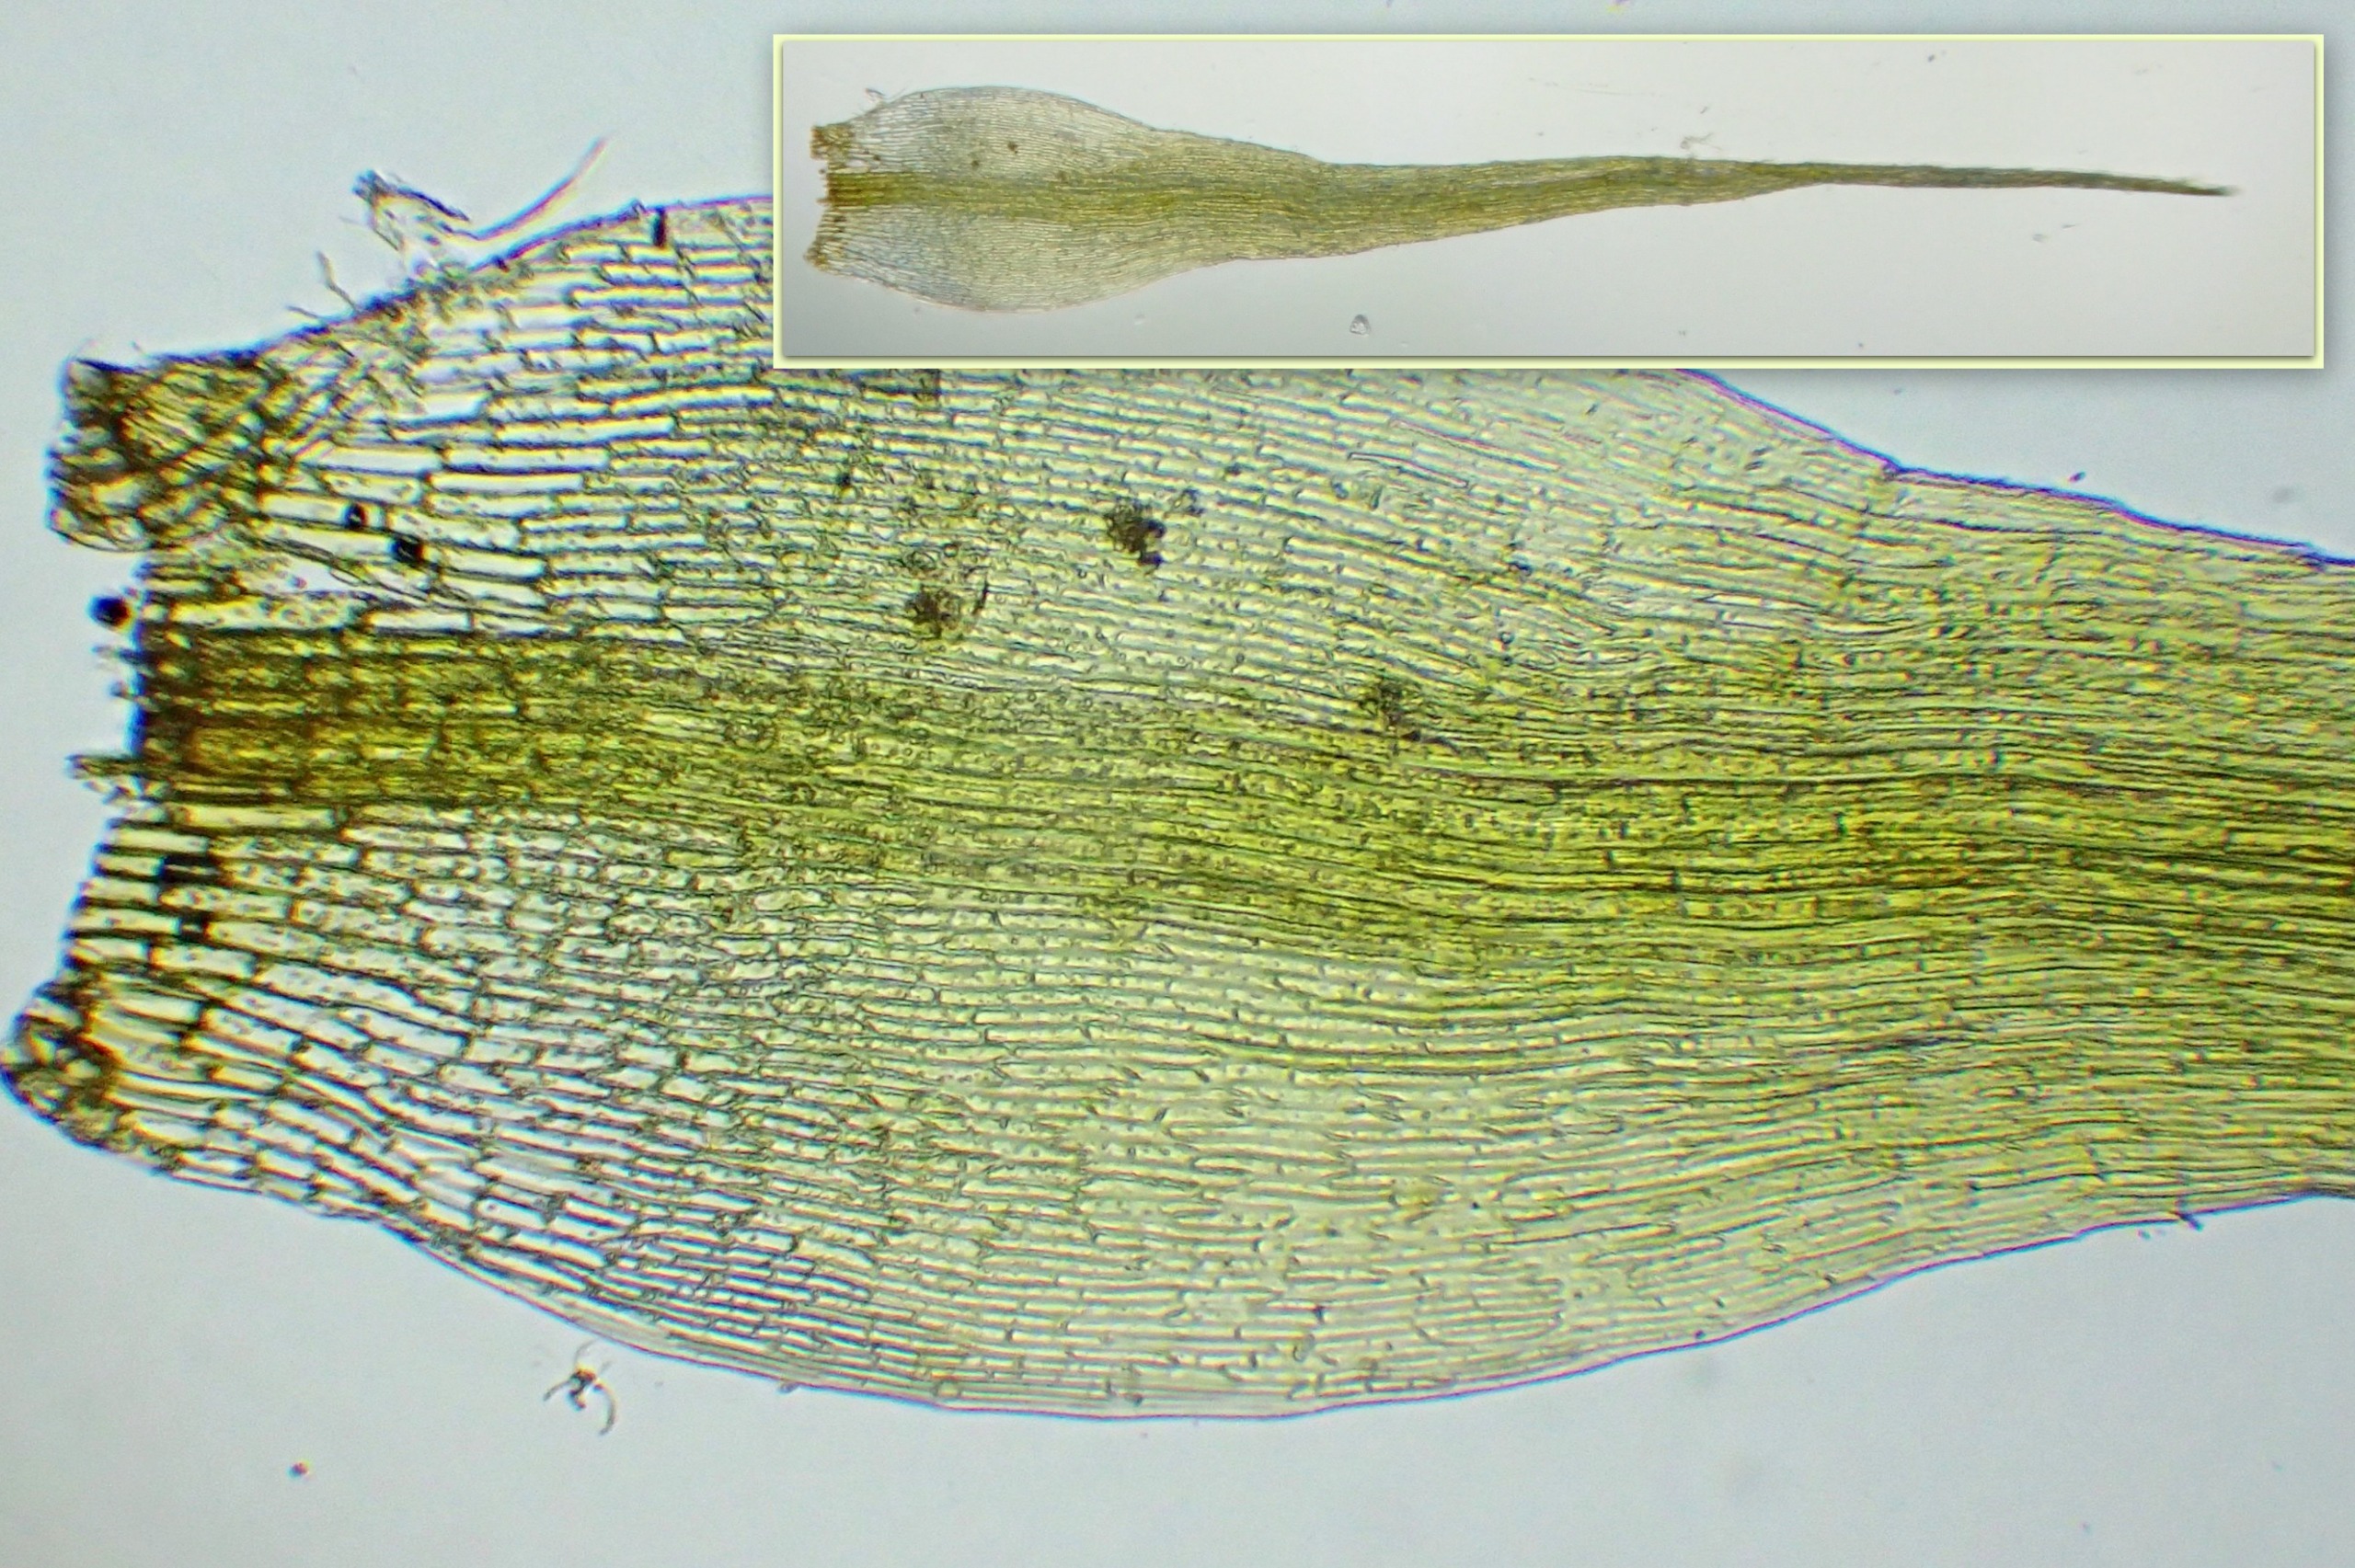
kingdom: Plantae
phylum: Bryophyta
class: Bryopsida
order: Dicranales
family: Ditrichaceae
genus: Pleuridium
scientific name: Pleuridium acuminatum
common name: Siddende sylbladsmos
